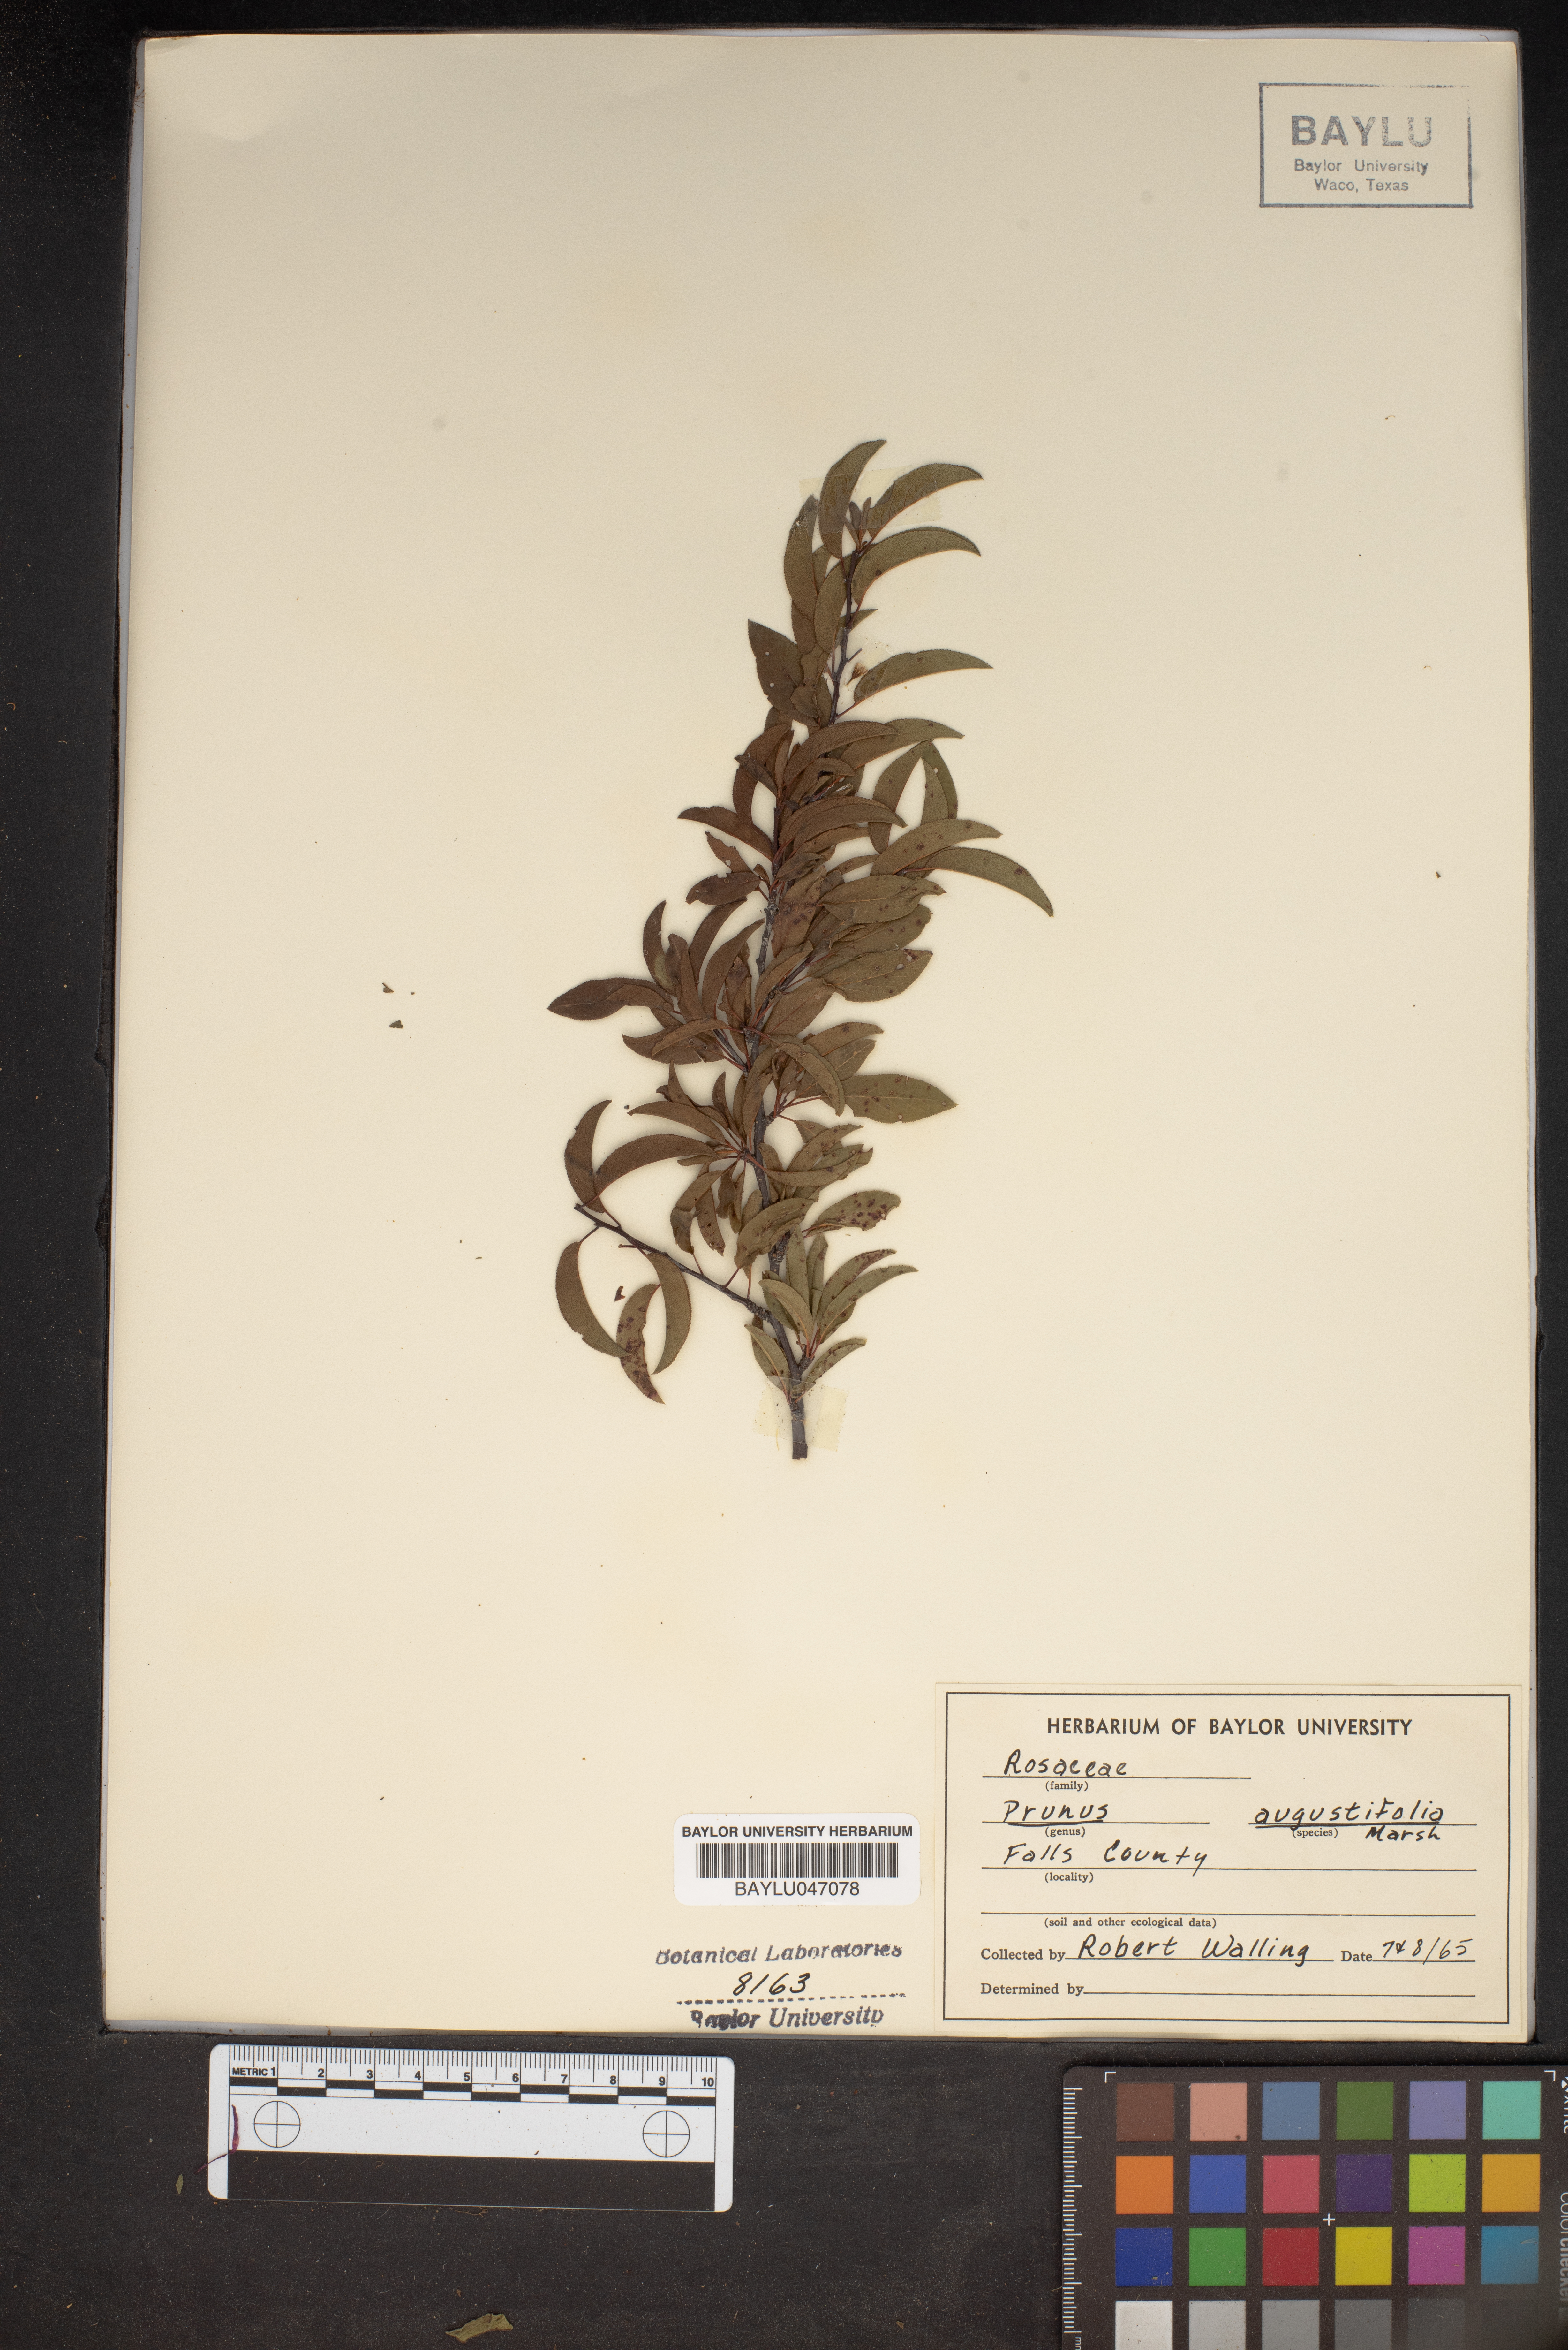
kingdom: Plantae
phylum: Tracheophyta
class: Magnoliopsida
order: Rosales
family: Rosaceae
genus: Prunus
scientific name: Prunus angustifolia
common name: Cherokee plum
